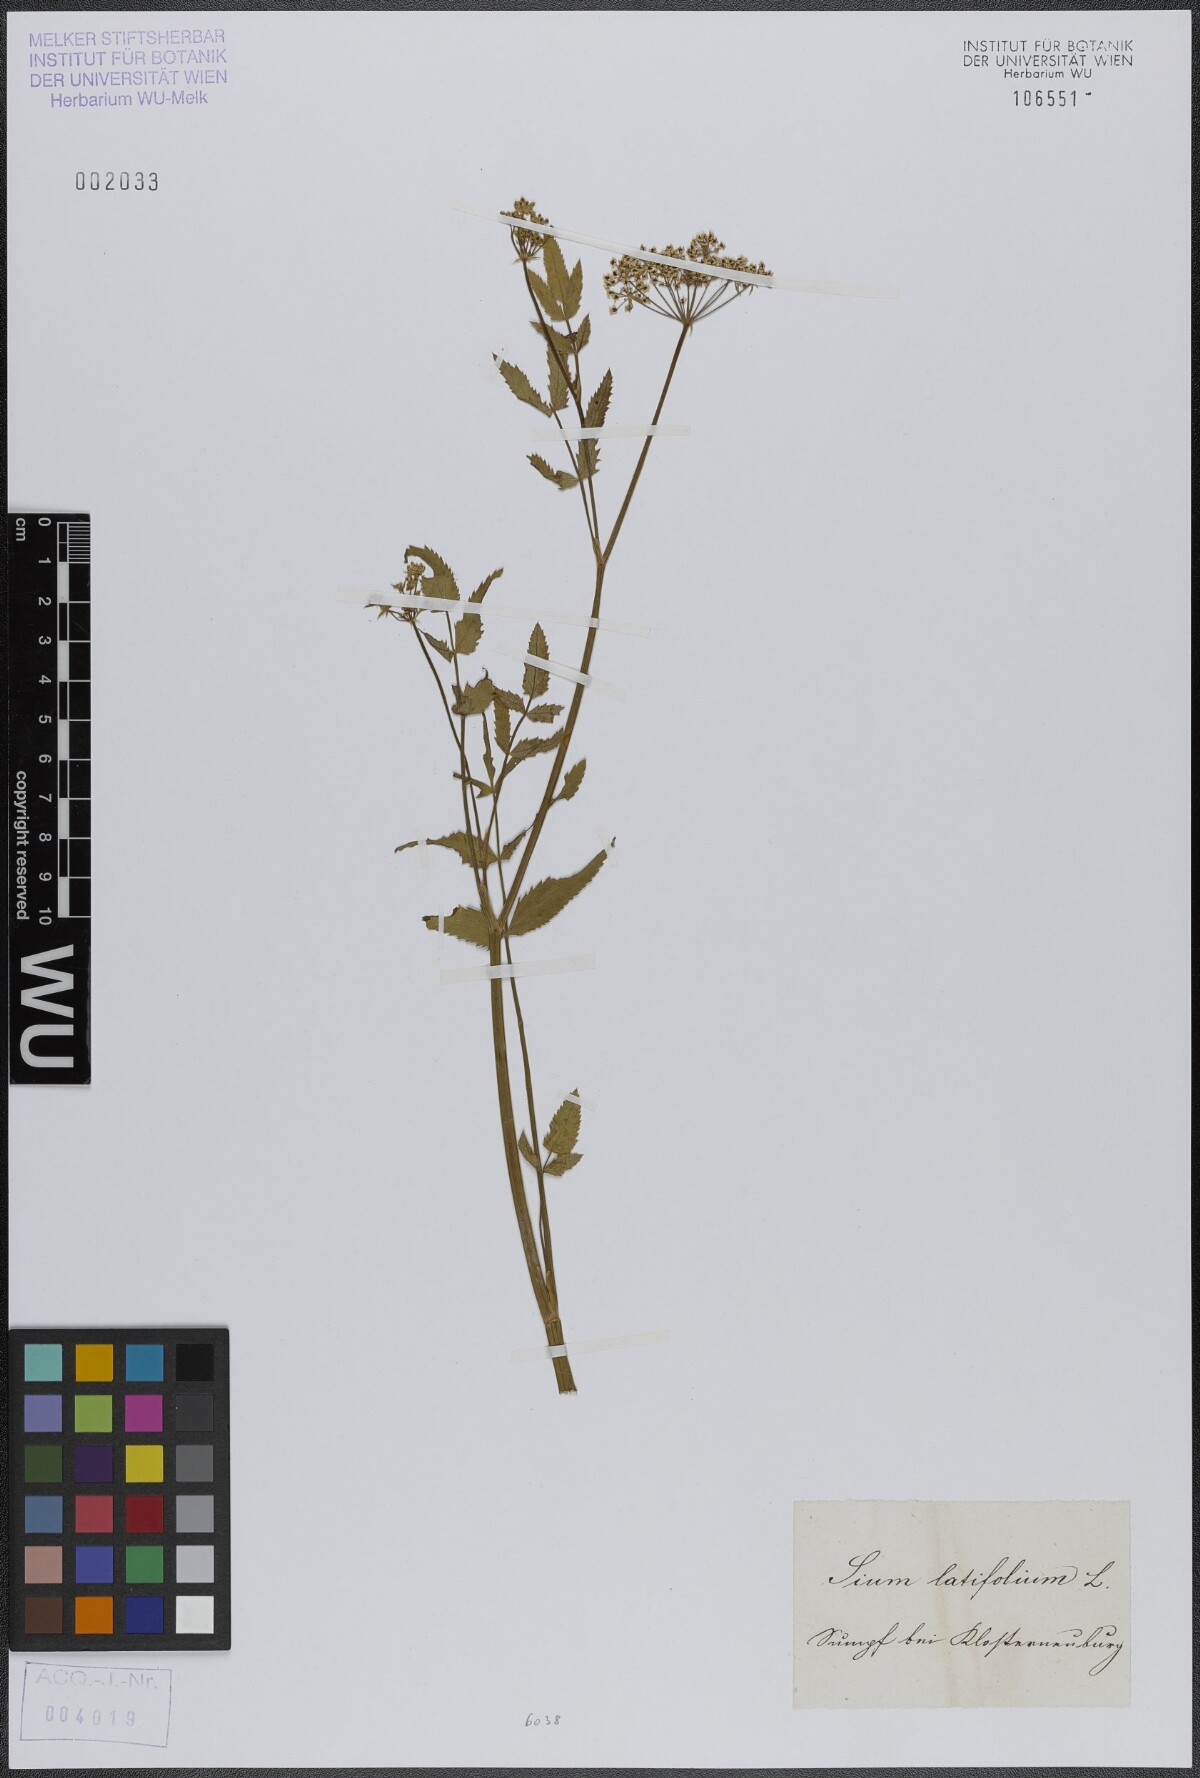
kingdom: Plantae
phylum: Tracheophyta
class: Magnoliopsida
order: Apiales
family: Apiaceae
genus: Sium
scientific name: Sium latifolium
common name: Greater water-parsnip
